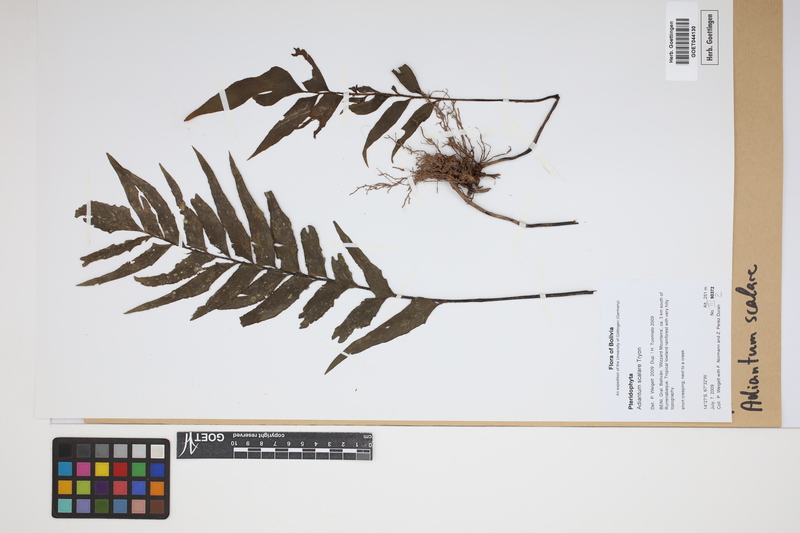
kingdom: Plantae
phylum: Tracheophyta
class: Polypodiopsida
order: Polypodiales
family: Pteridaceae
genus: Adiantum
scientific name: Adiantum scalare
